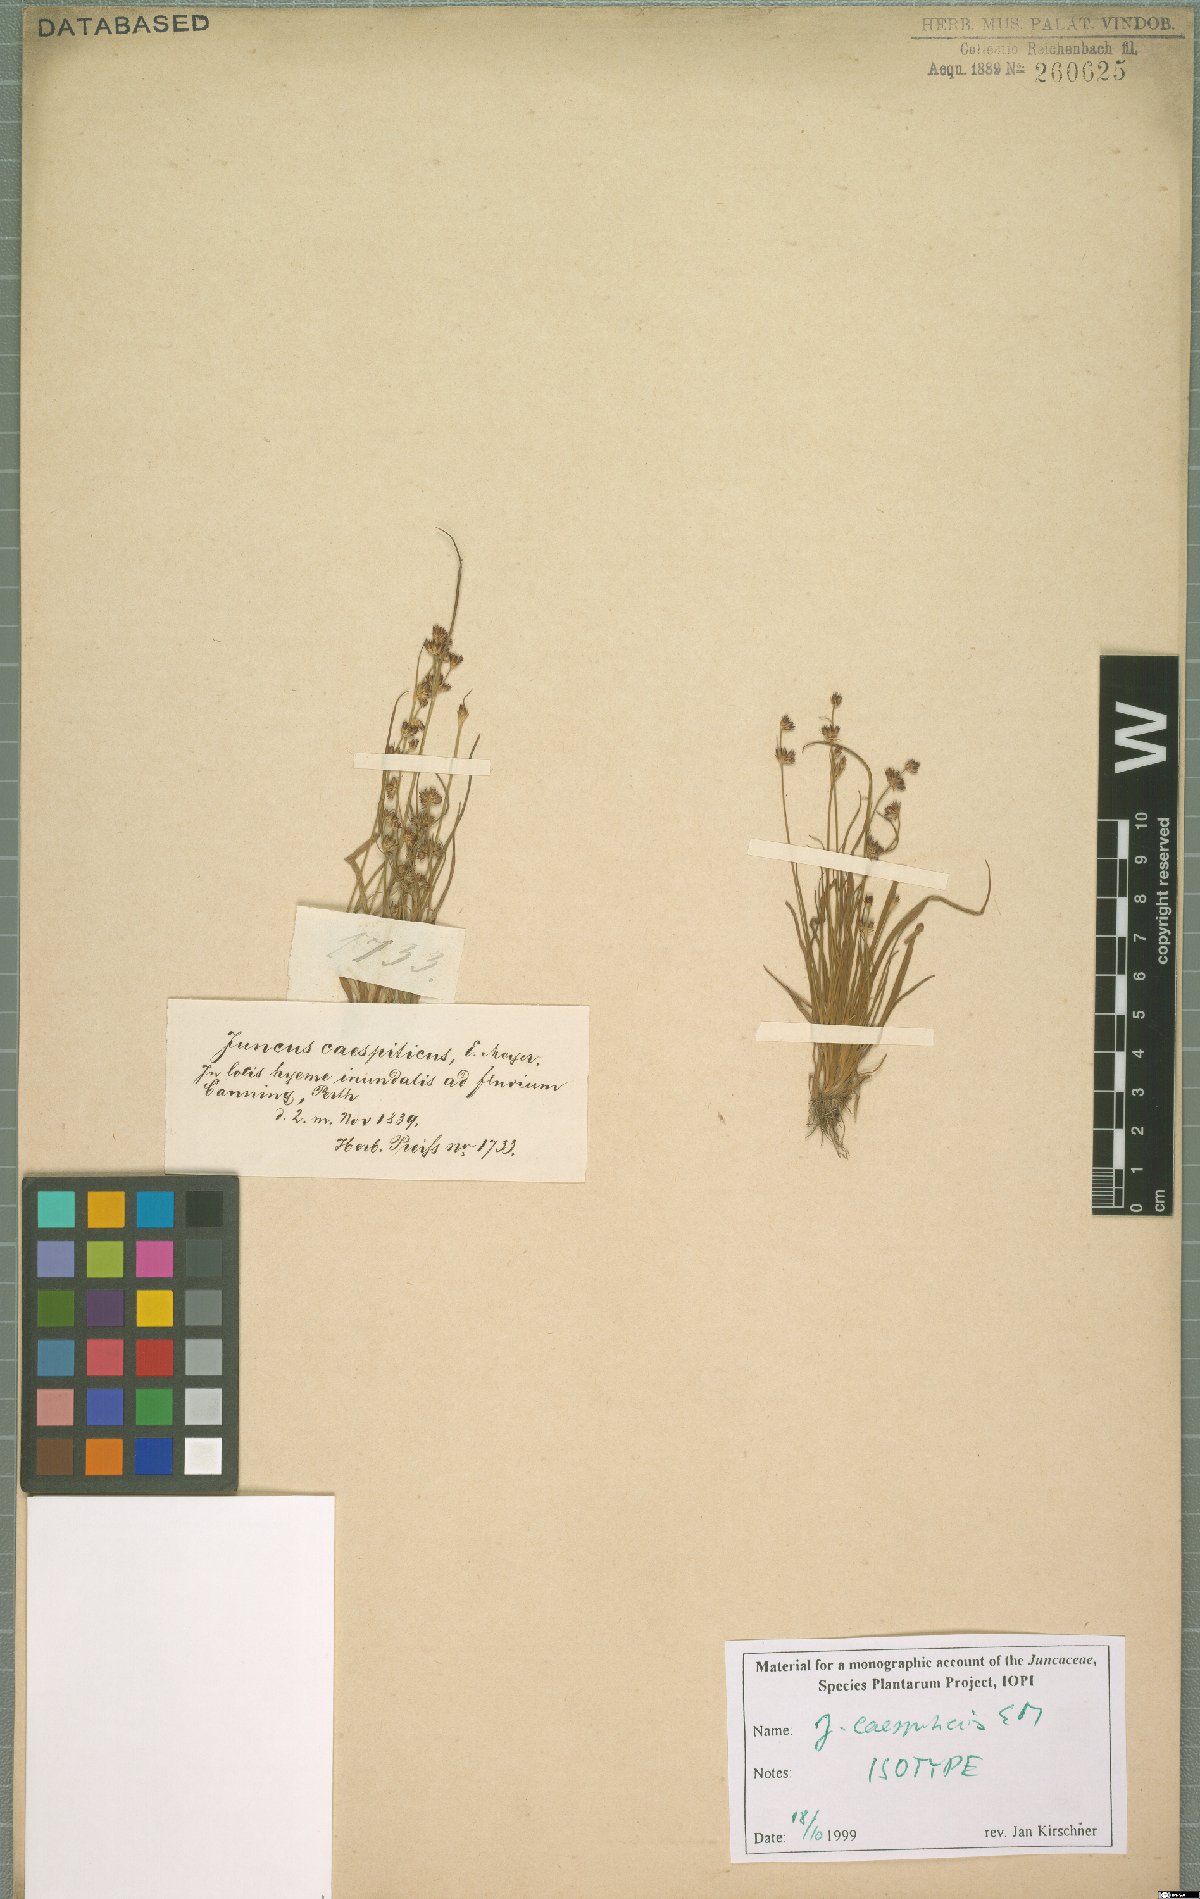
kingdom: Plantae
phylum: Tracheophyta
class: Liliopsida
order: Poales
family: Juncaceae
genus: Juncus
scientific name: Juncus caespiticius
